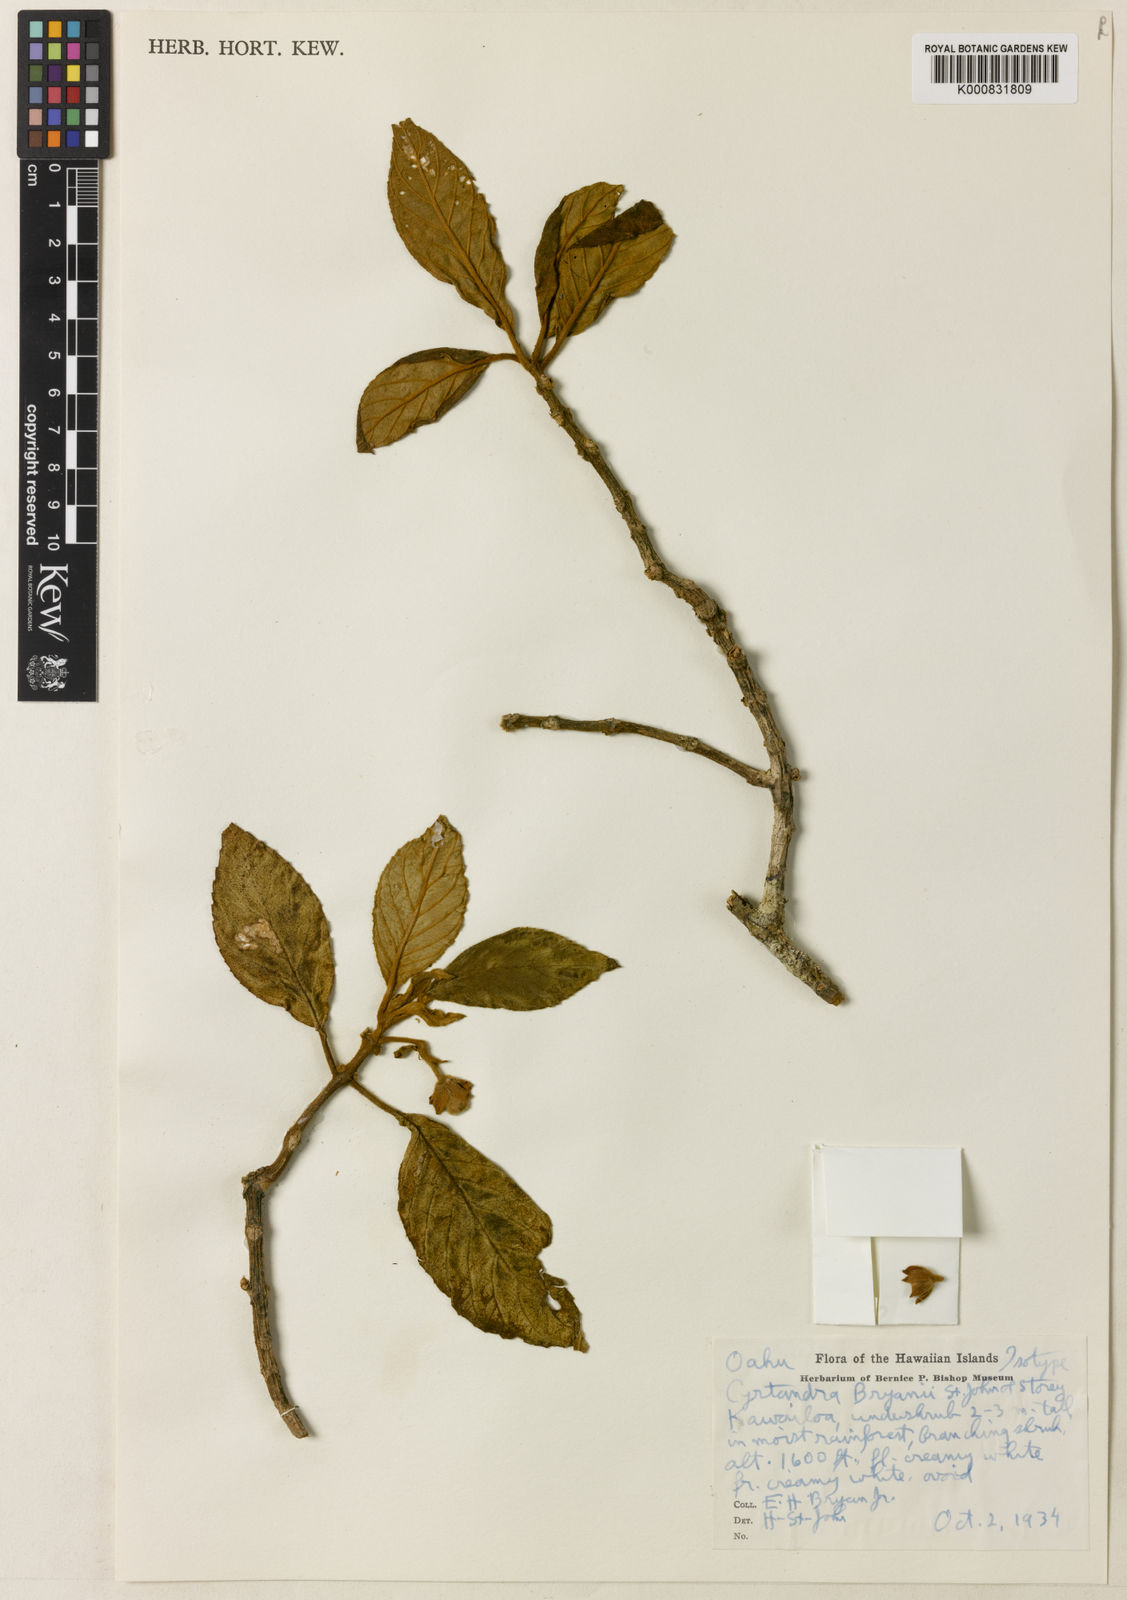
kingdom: Plantae
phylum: Tracheophyta
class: Magnoliopsida
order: Lamiales
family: Gesneriaceae
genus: Cyrtandra
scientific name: Cyrtandra lessoniana
